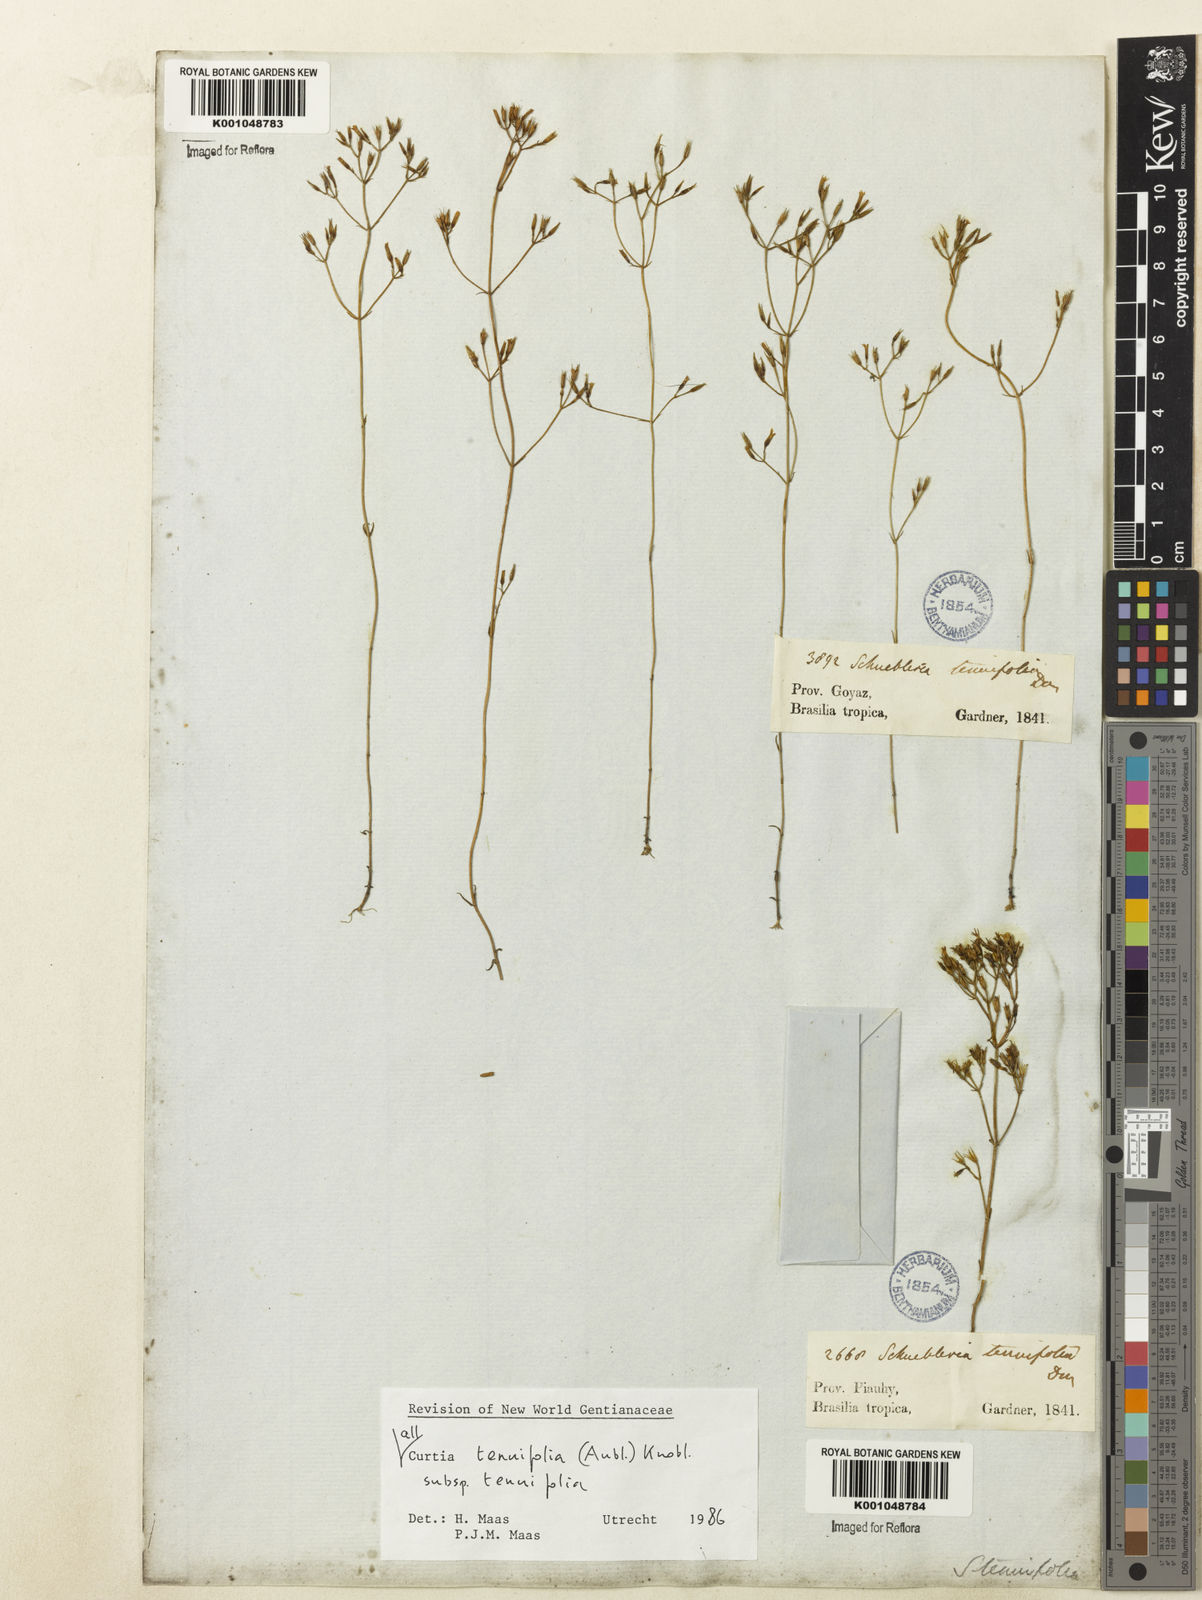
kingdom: Plantae
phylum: Tracheophyta
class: Magnoliopsida
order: Gentianales
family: Gentianaceae
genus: Curtia
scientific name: Curtia tenuifolia
